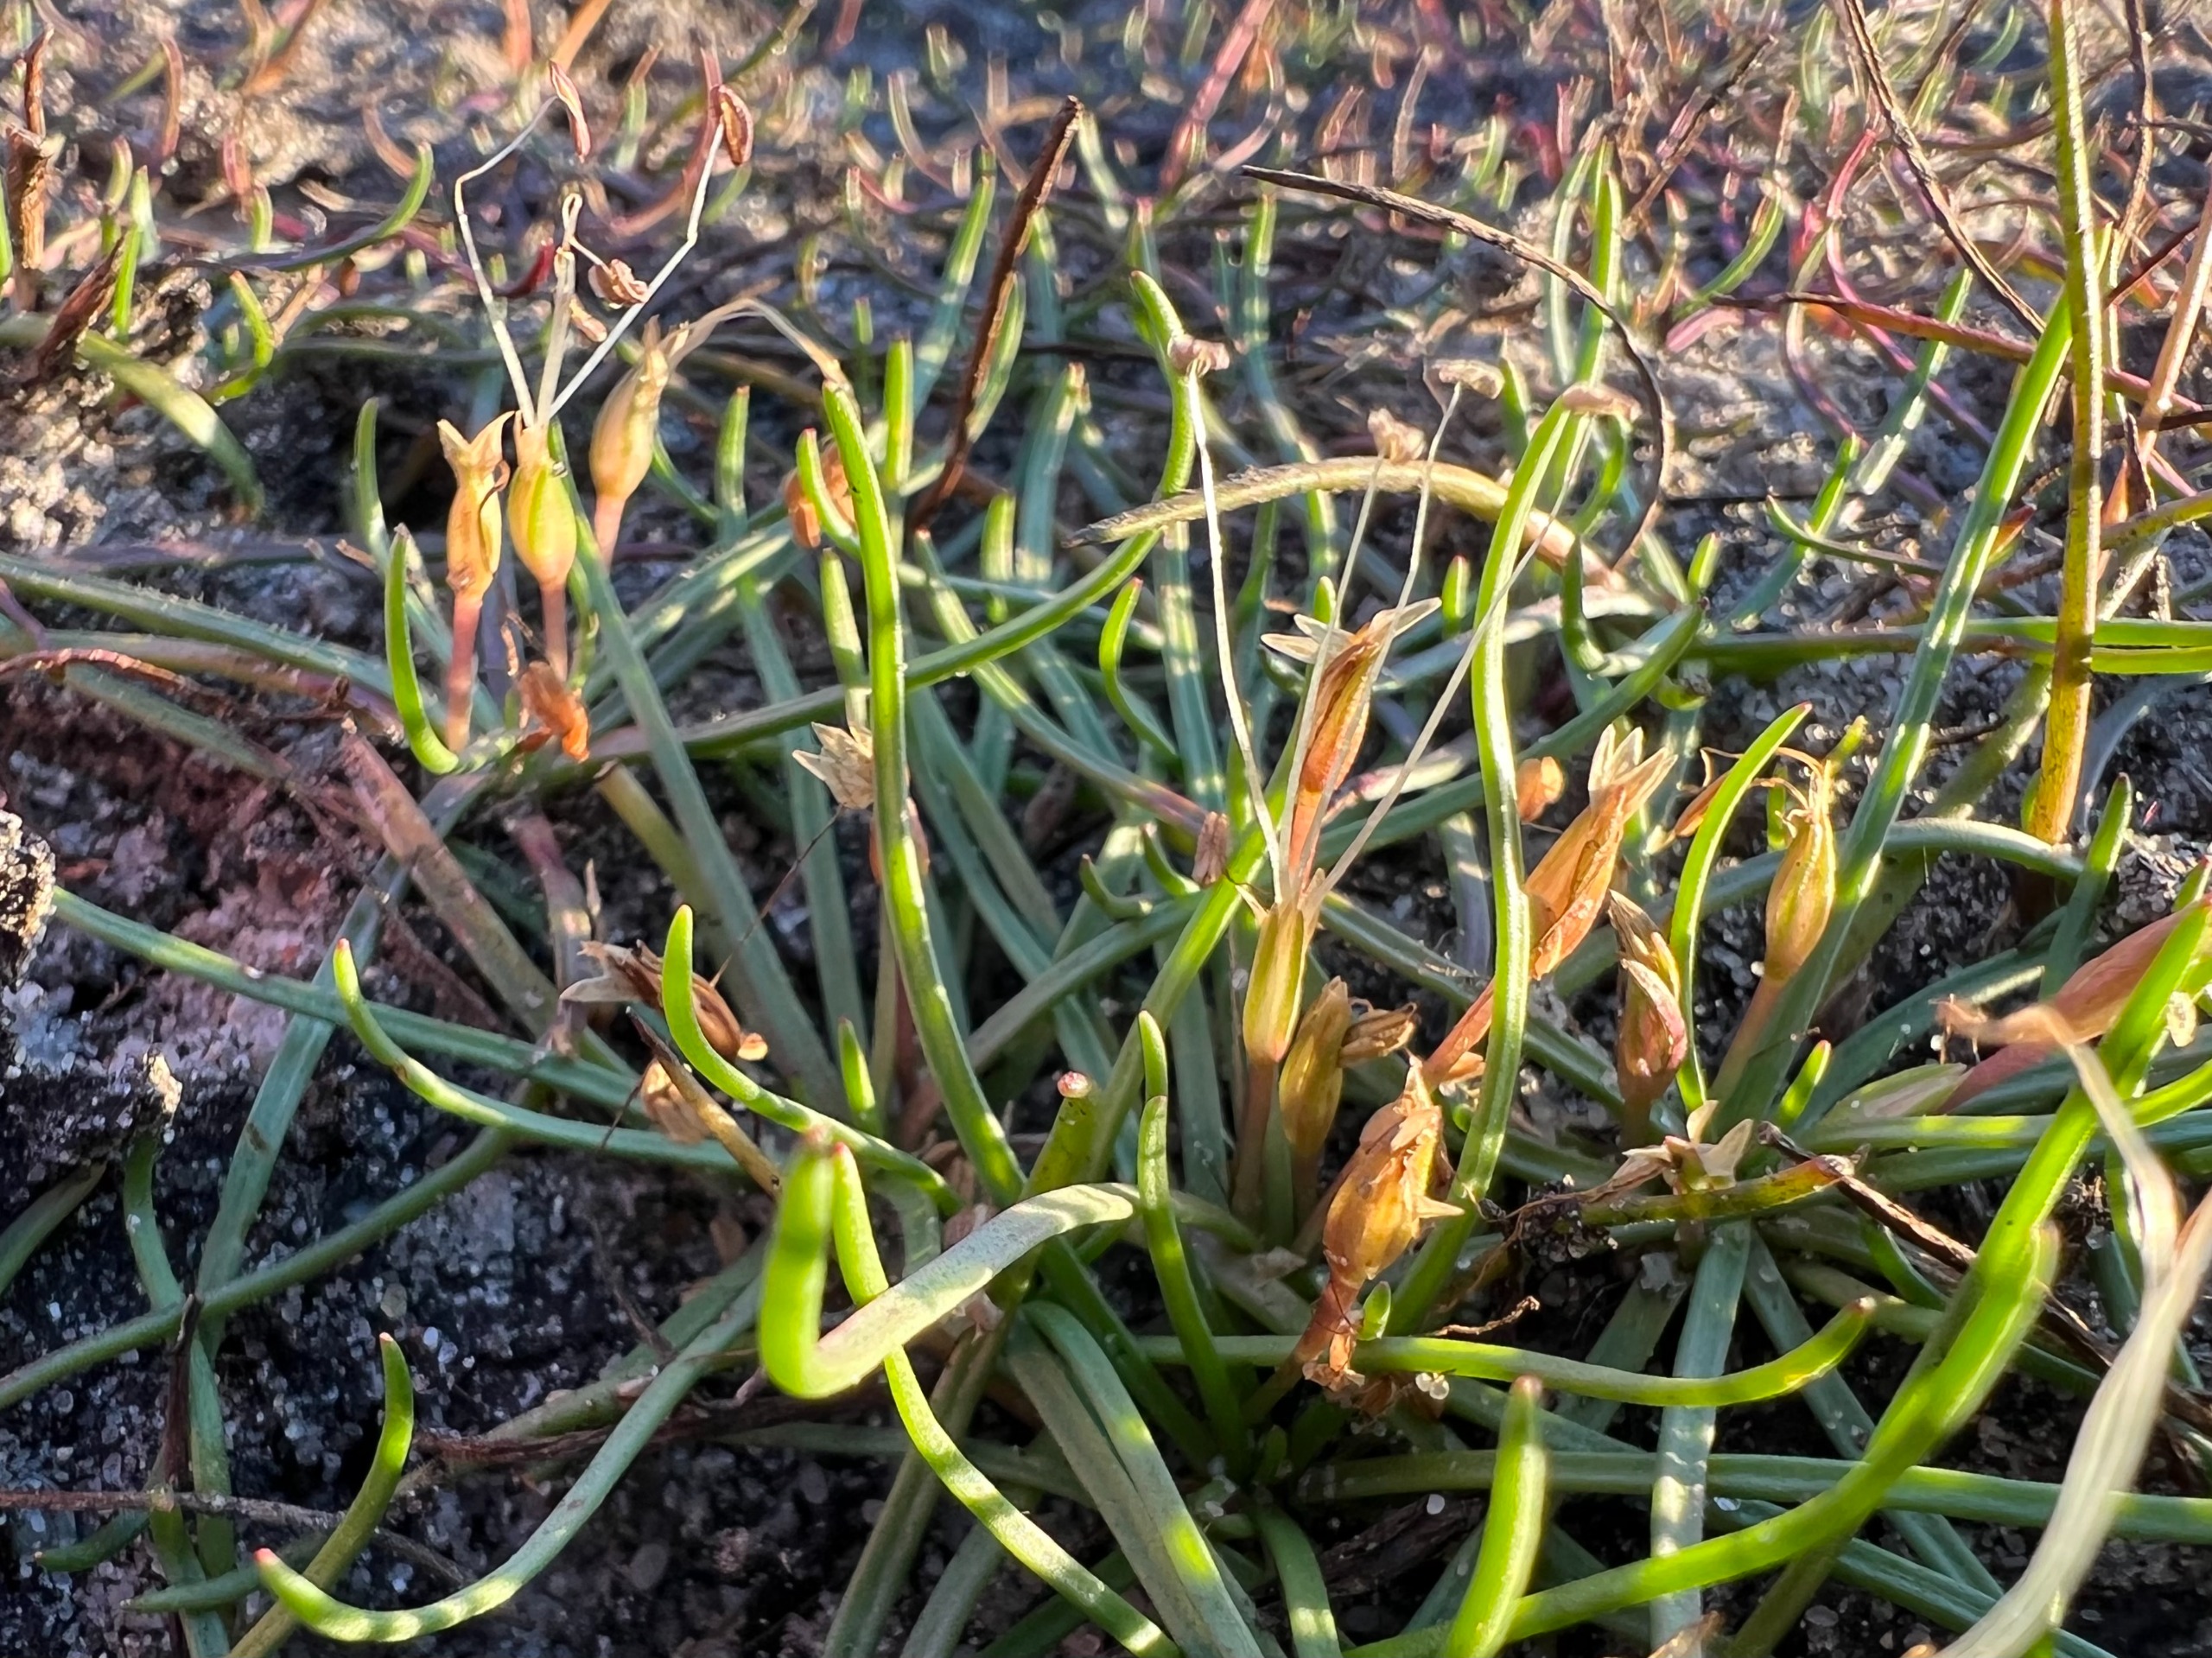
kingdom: Plantae
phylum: Tracheophyta
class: Magnoliopsida
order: Lamiales
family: Plantaginaceae
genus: Littorella
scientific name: Littorella uniflora
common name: Strandbo
